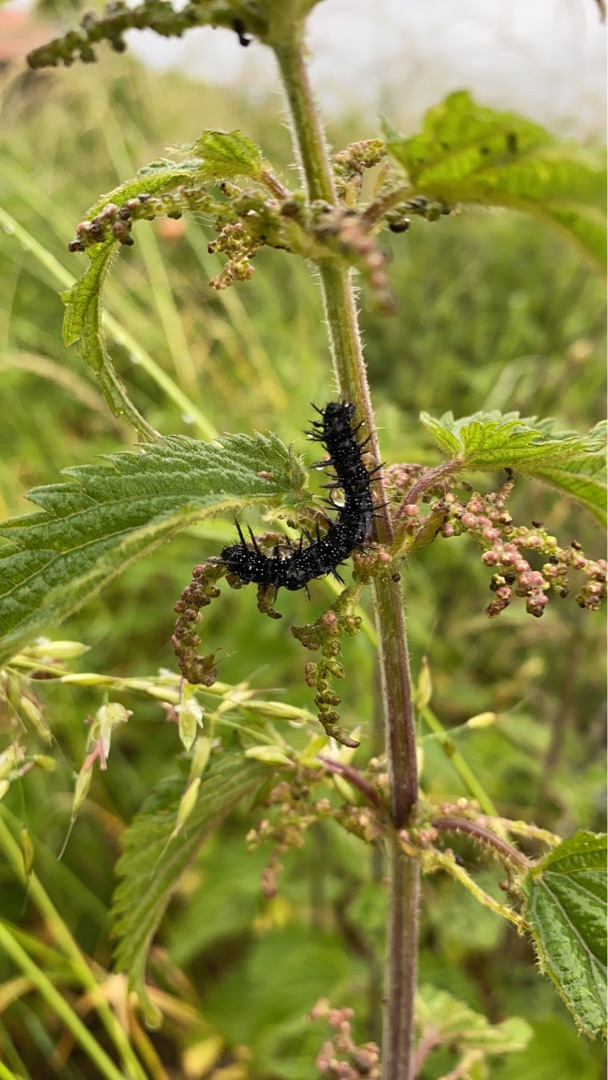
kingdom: Animalia
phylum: Arthropoda
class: Insecta
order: Lepidoptera
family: Nymphalidae
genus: Aglais
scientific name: Aglais io
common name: Dagpåfugleøje
